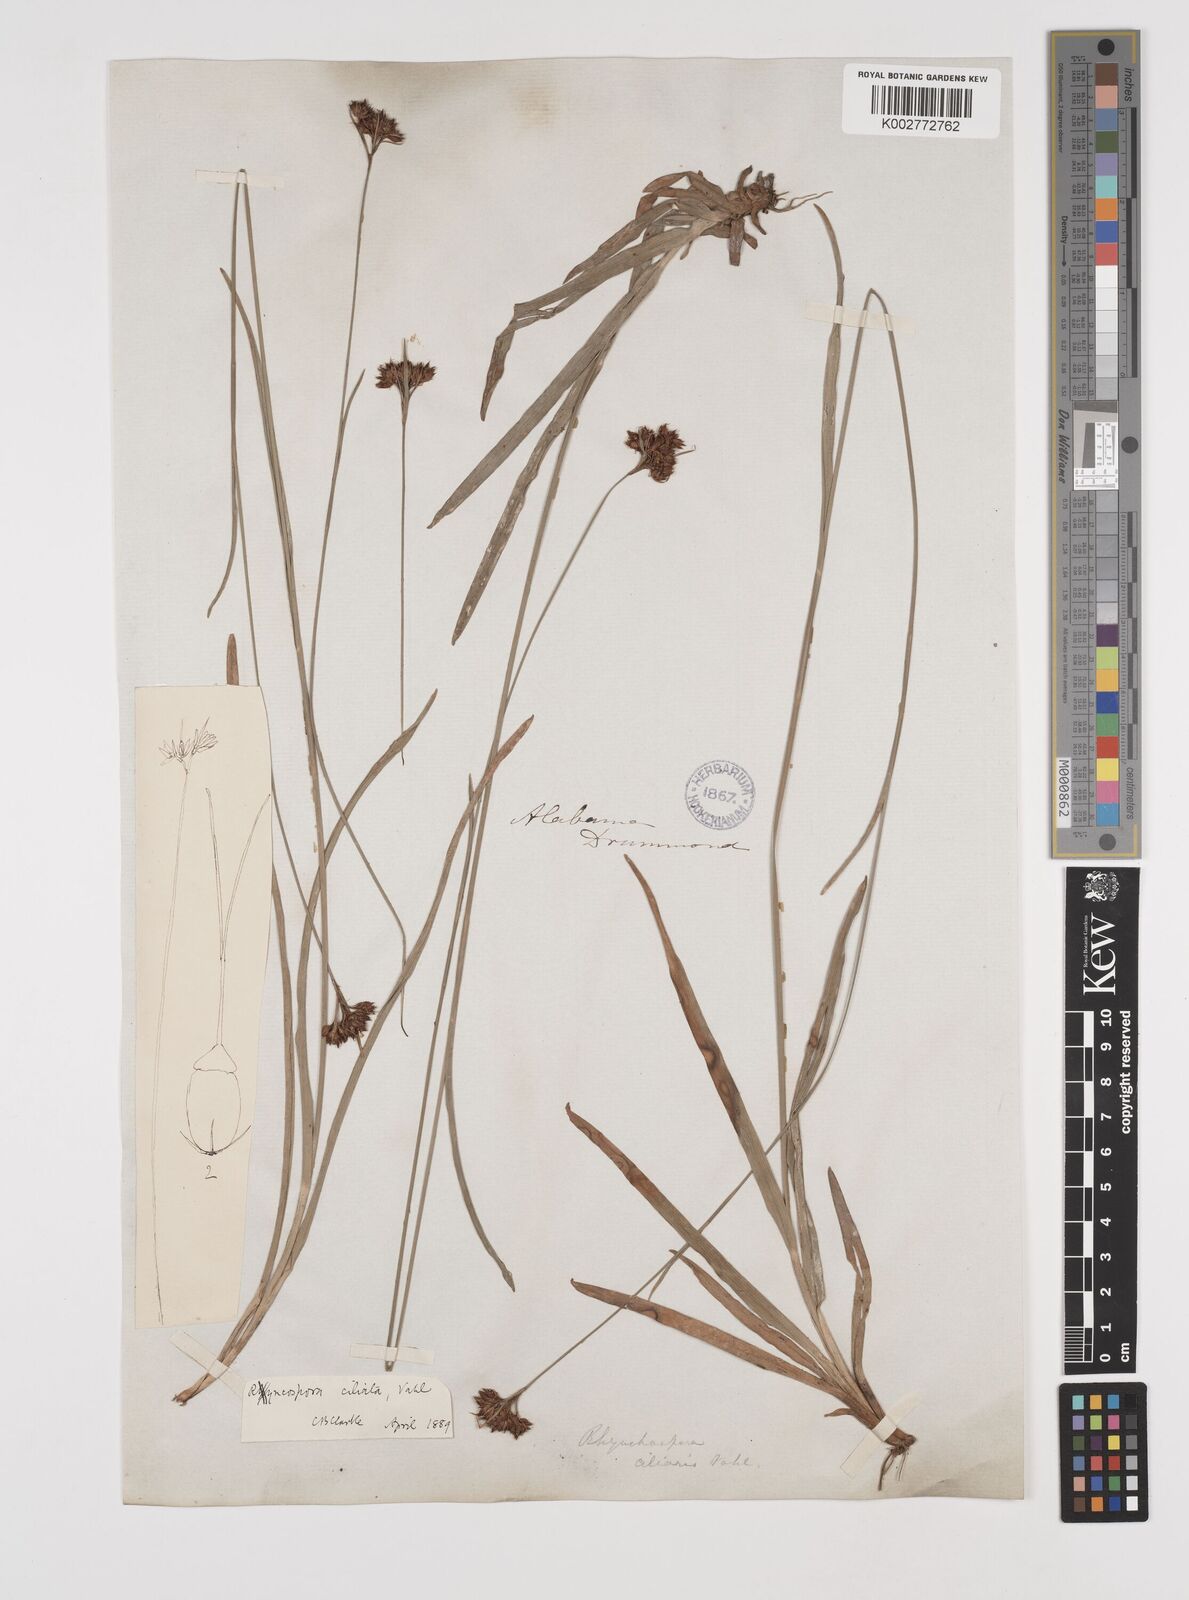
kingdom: Plantae
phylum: Tracheophyta
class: Liliopsida
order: Poales
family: Cyperaceae
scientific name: Cyperaceae
